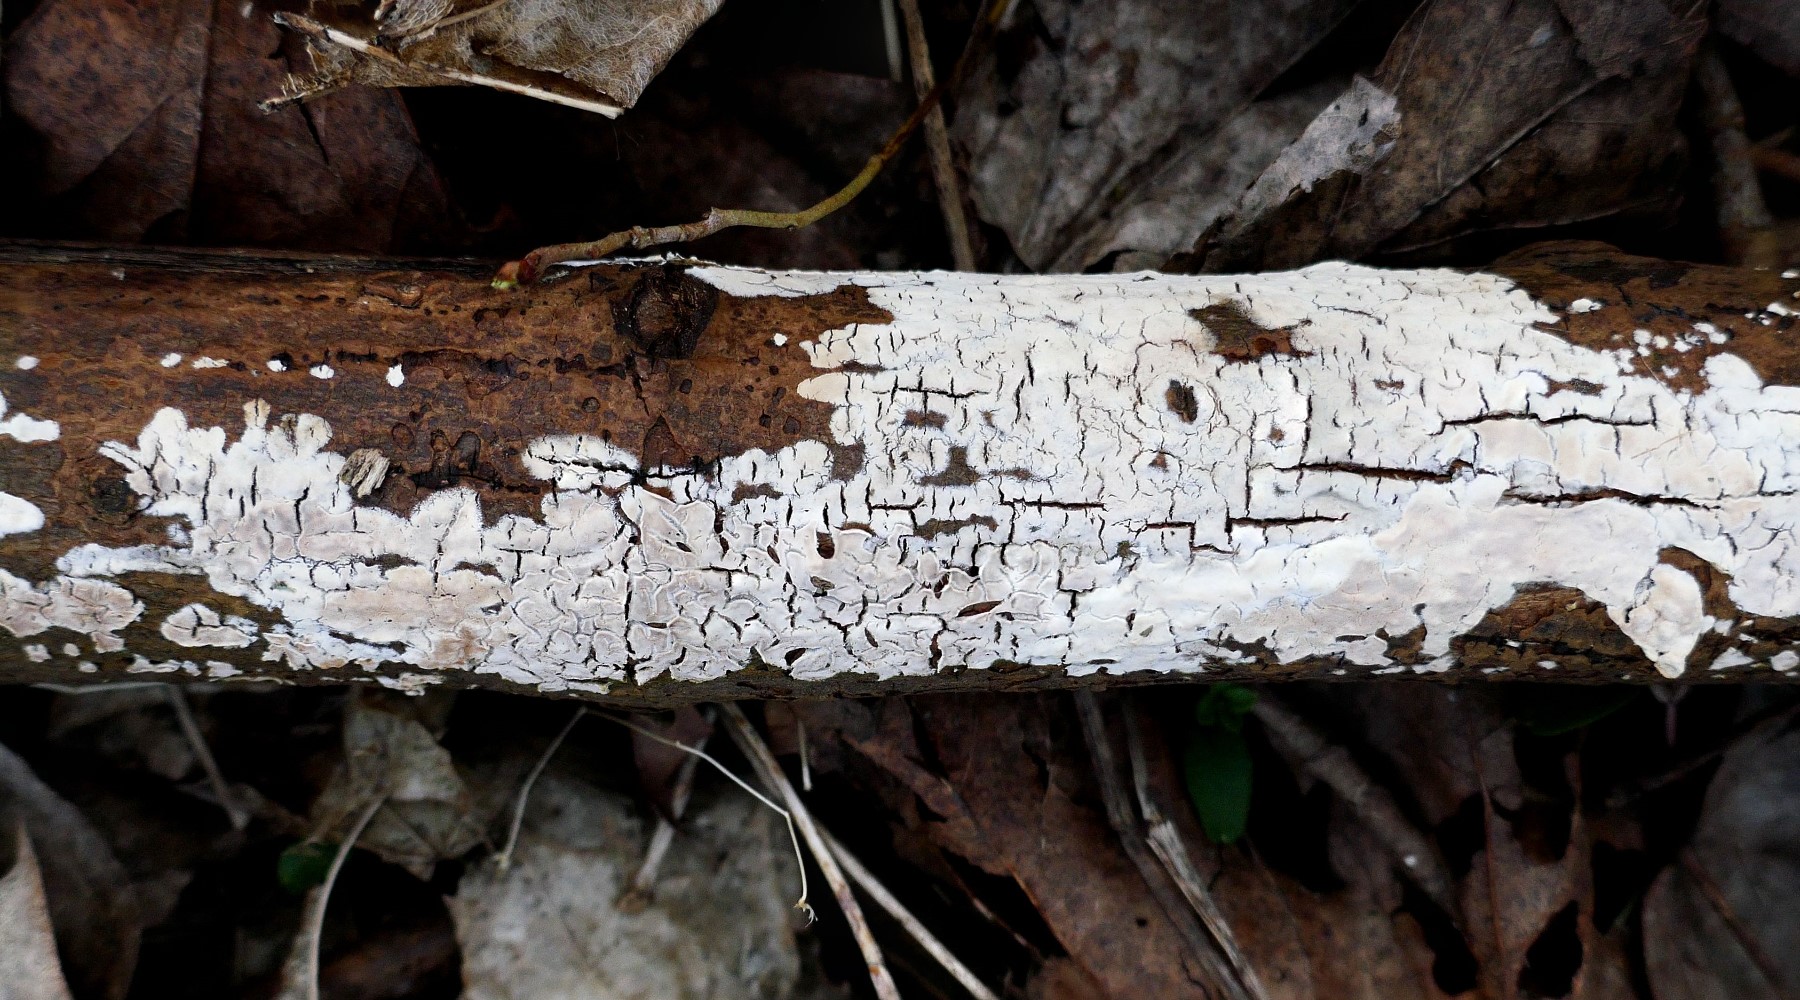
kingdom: Fungi
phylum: Basidiomycota
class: Agaricomycetes
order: Agaricales
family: Physalacriaceae
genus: Cylindrobasidium
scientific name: Cylindrobasidium evolvens
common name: sprækkehinde
